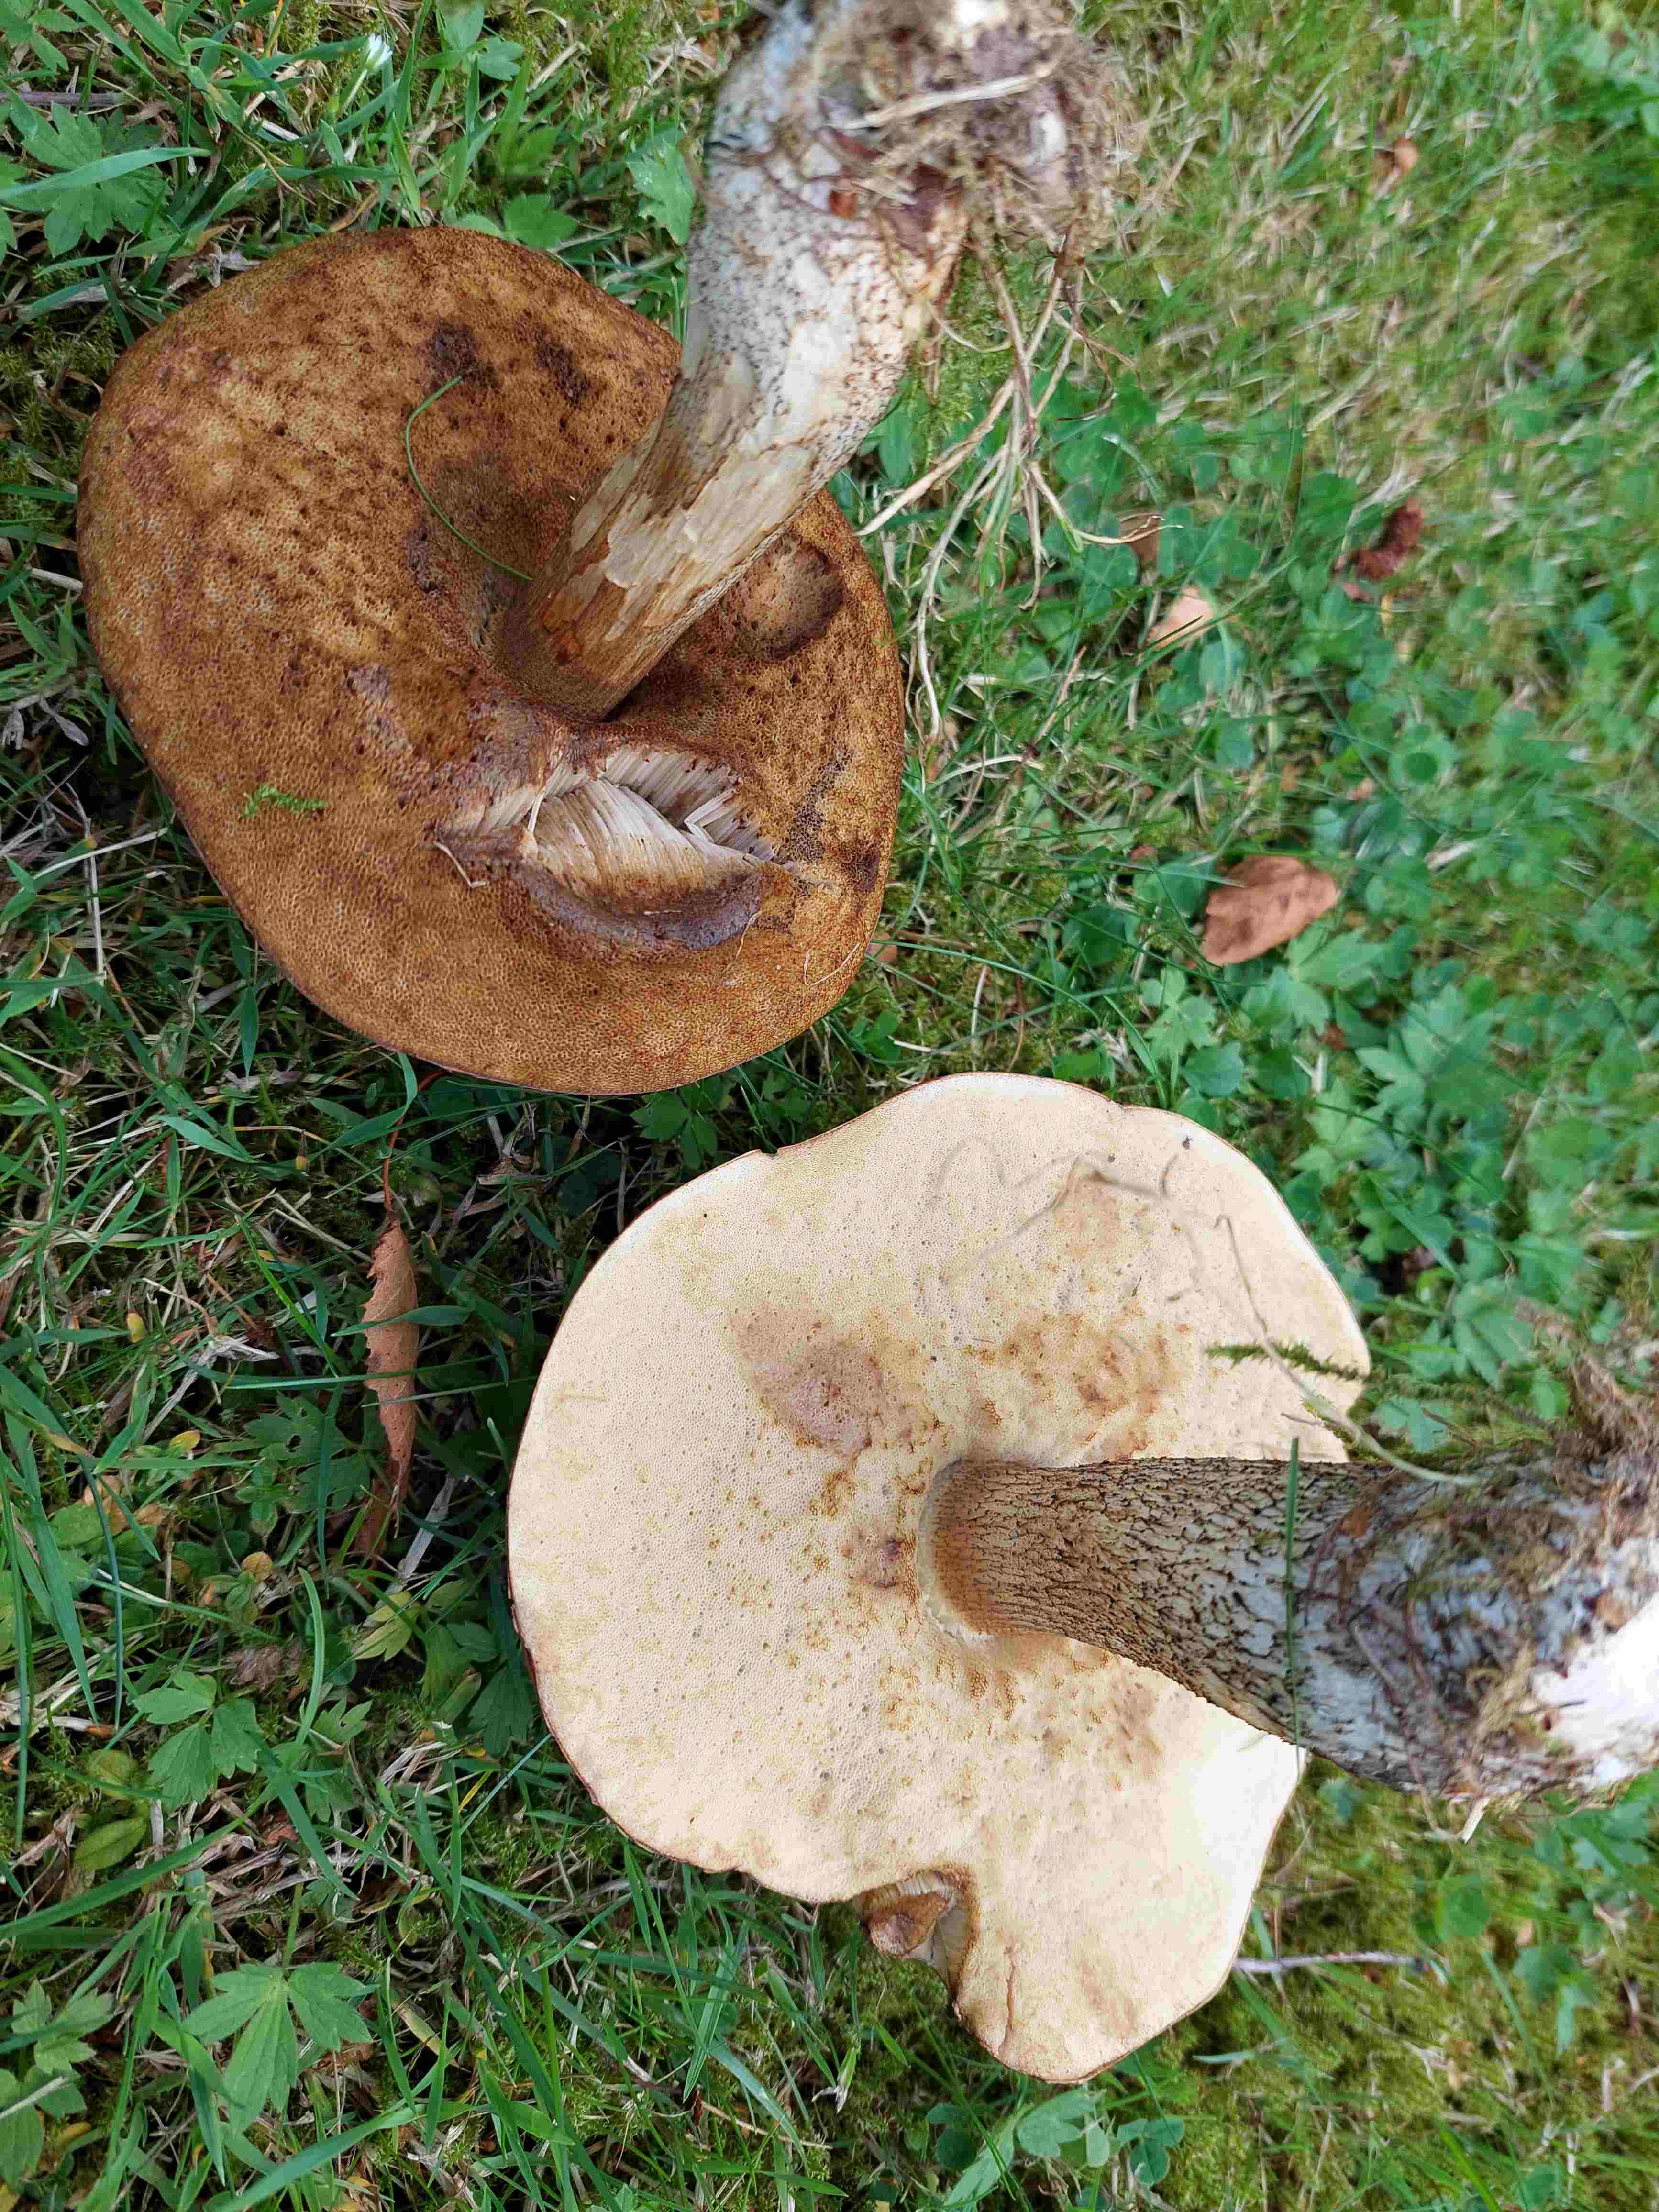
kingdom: Fungi
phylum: Basidiomycota
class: Agaricomycetes
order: Boletales
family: Boletaceae
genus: Leccinum
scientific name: Leccinum scabrum
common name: brun skælrørhat
